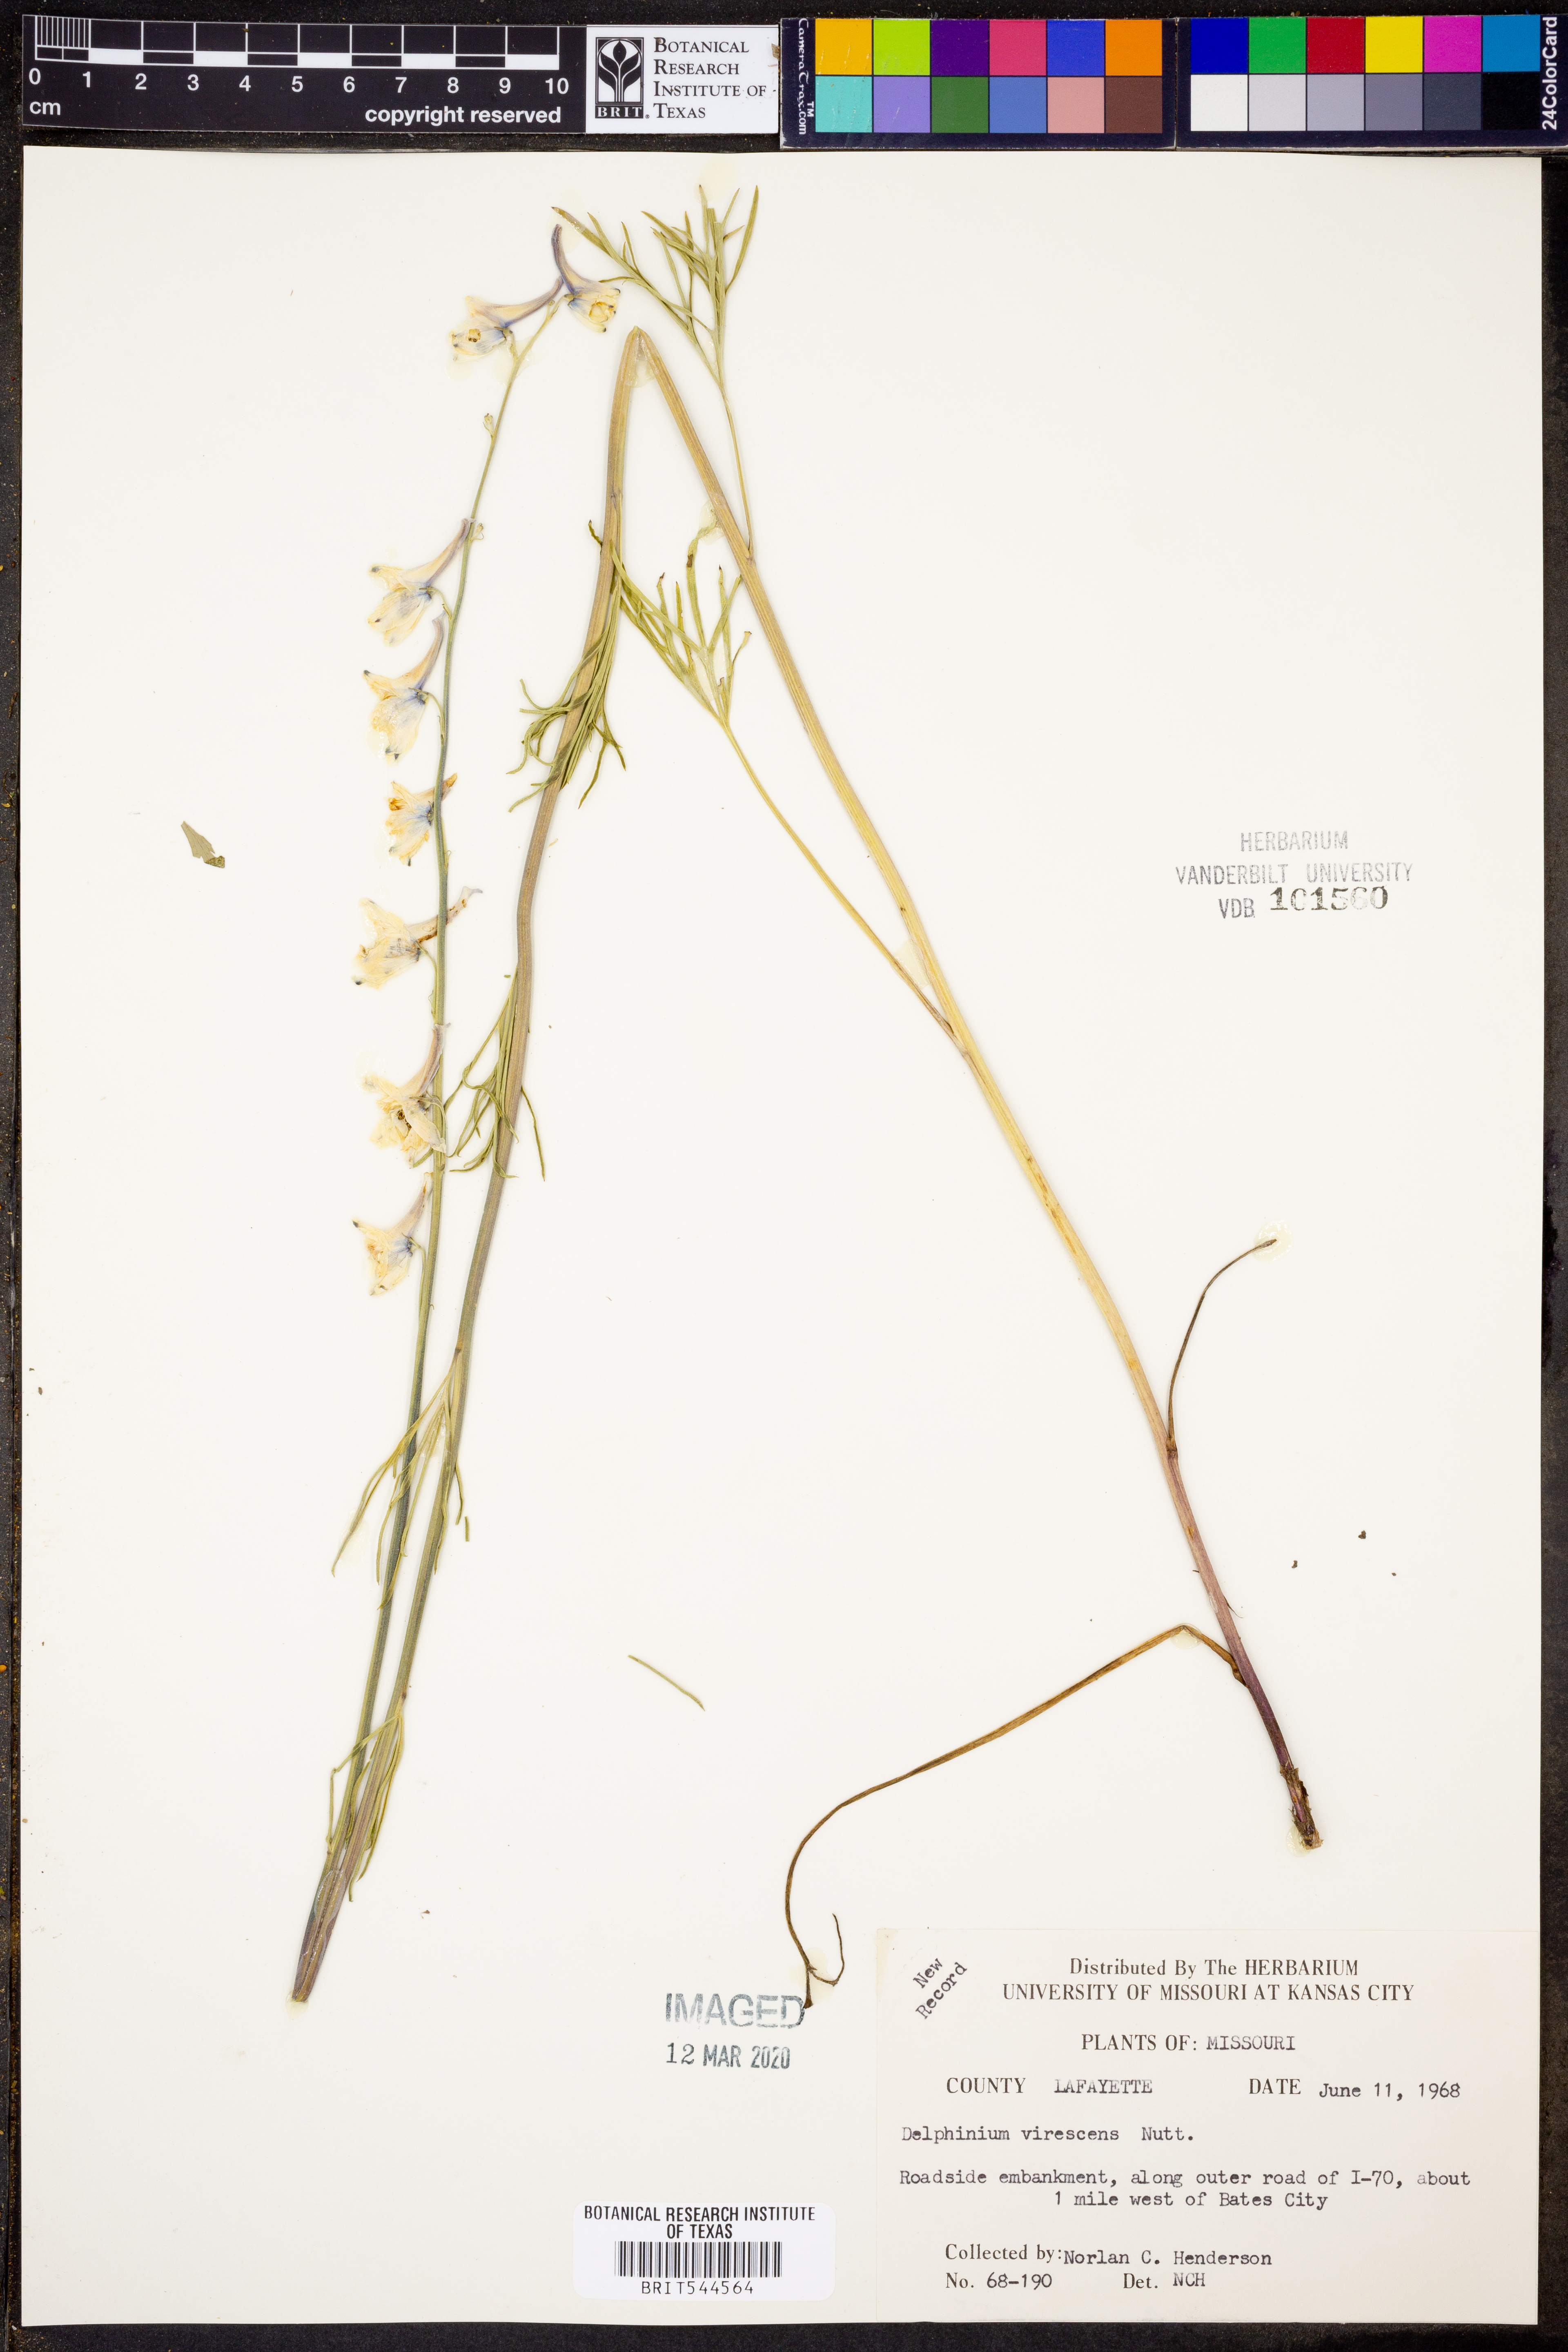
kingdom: Plantae
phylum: Tracheophyta
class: Magnoliopsida
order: Ranunculales
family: Ranunculaceae
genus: Delphinium
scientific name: Delphinium carolinianum
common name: Carolina larkspur
